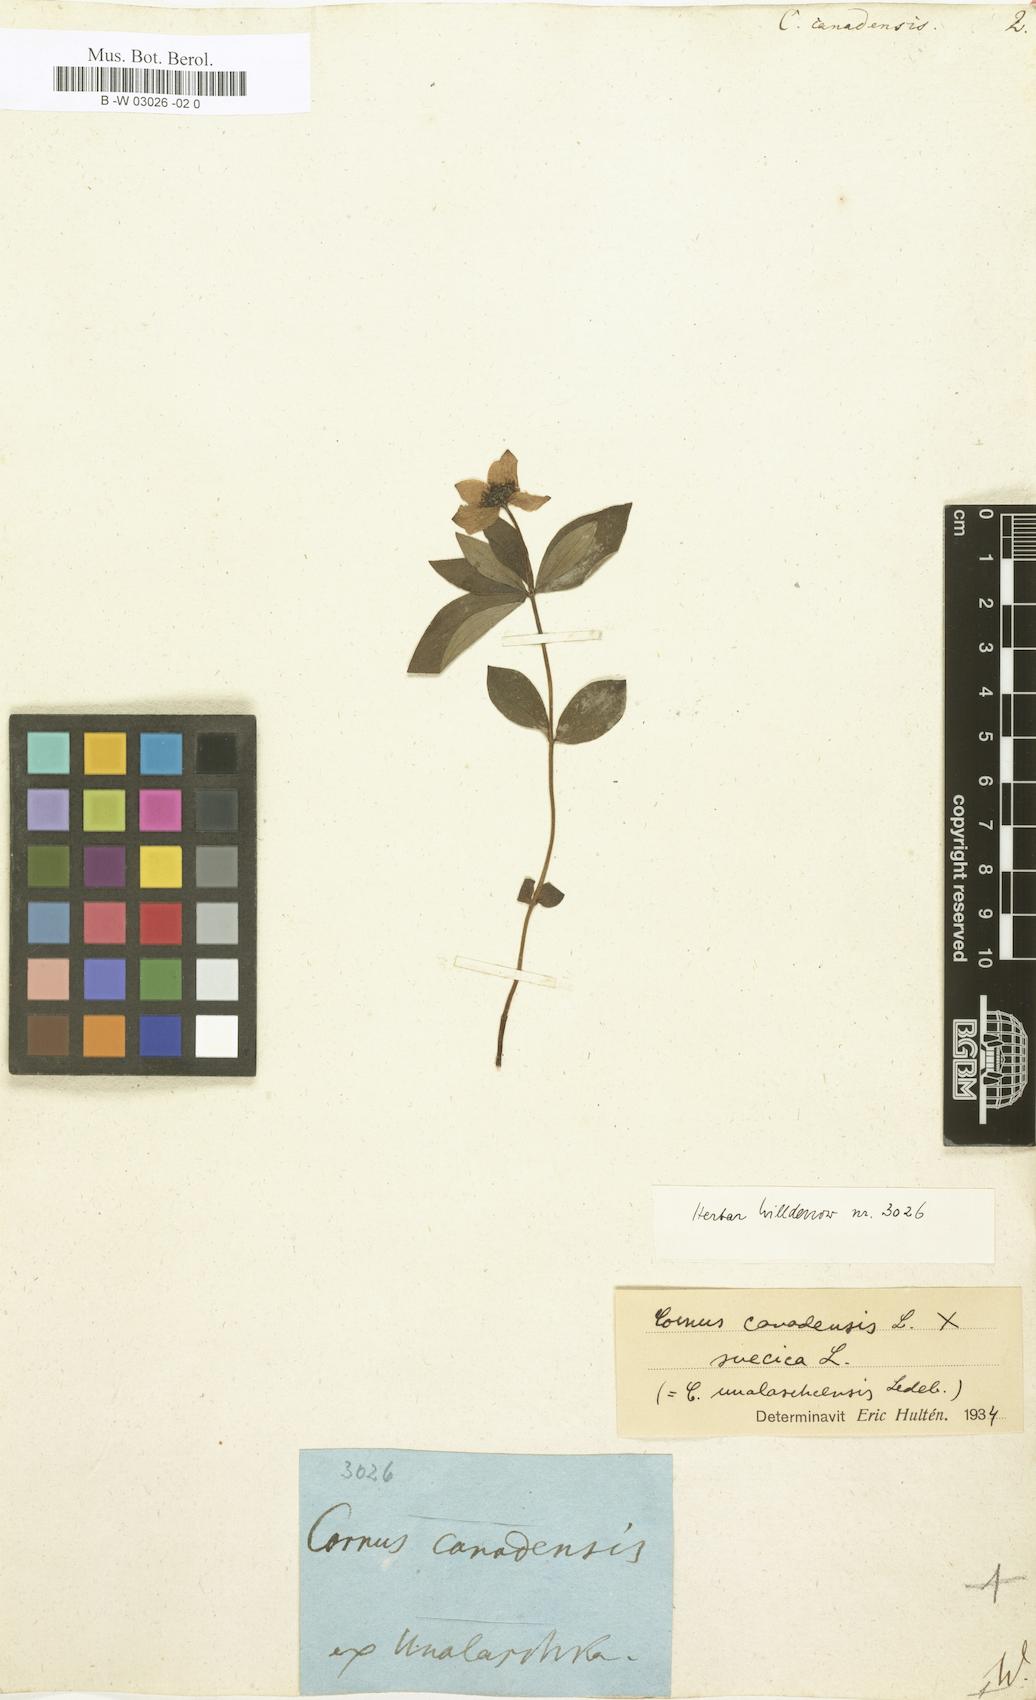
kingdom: Plantae
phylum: Tracheophyta
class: Magnoliopsida
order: Cornales
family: Cornaceae
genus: Cornus
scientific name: Cornus canadensis
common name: Creeping dogwood
